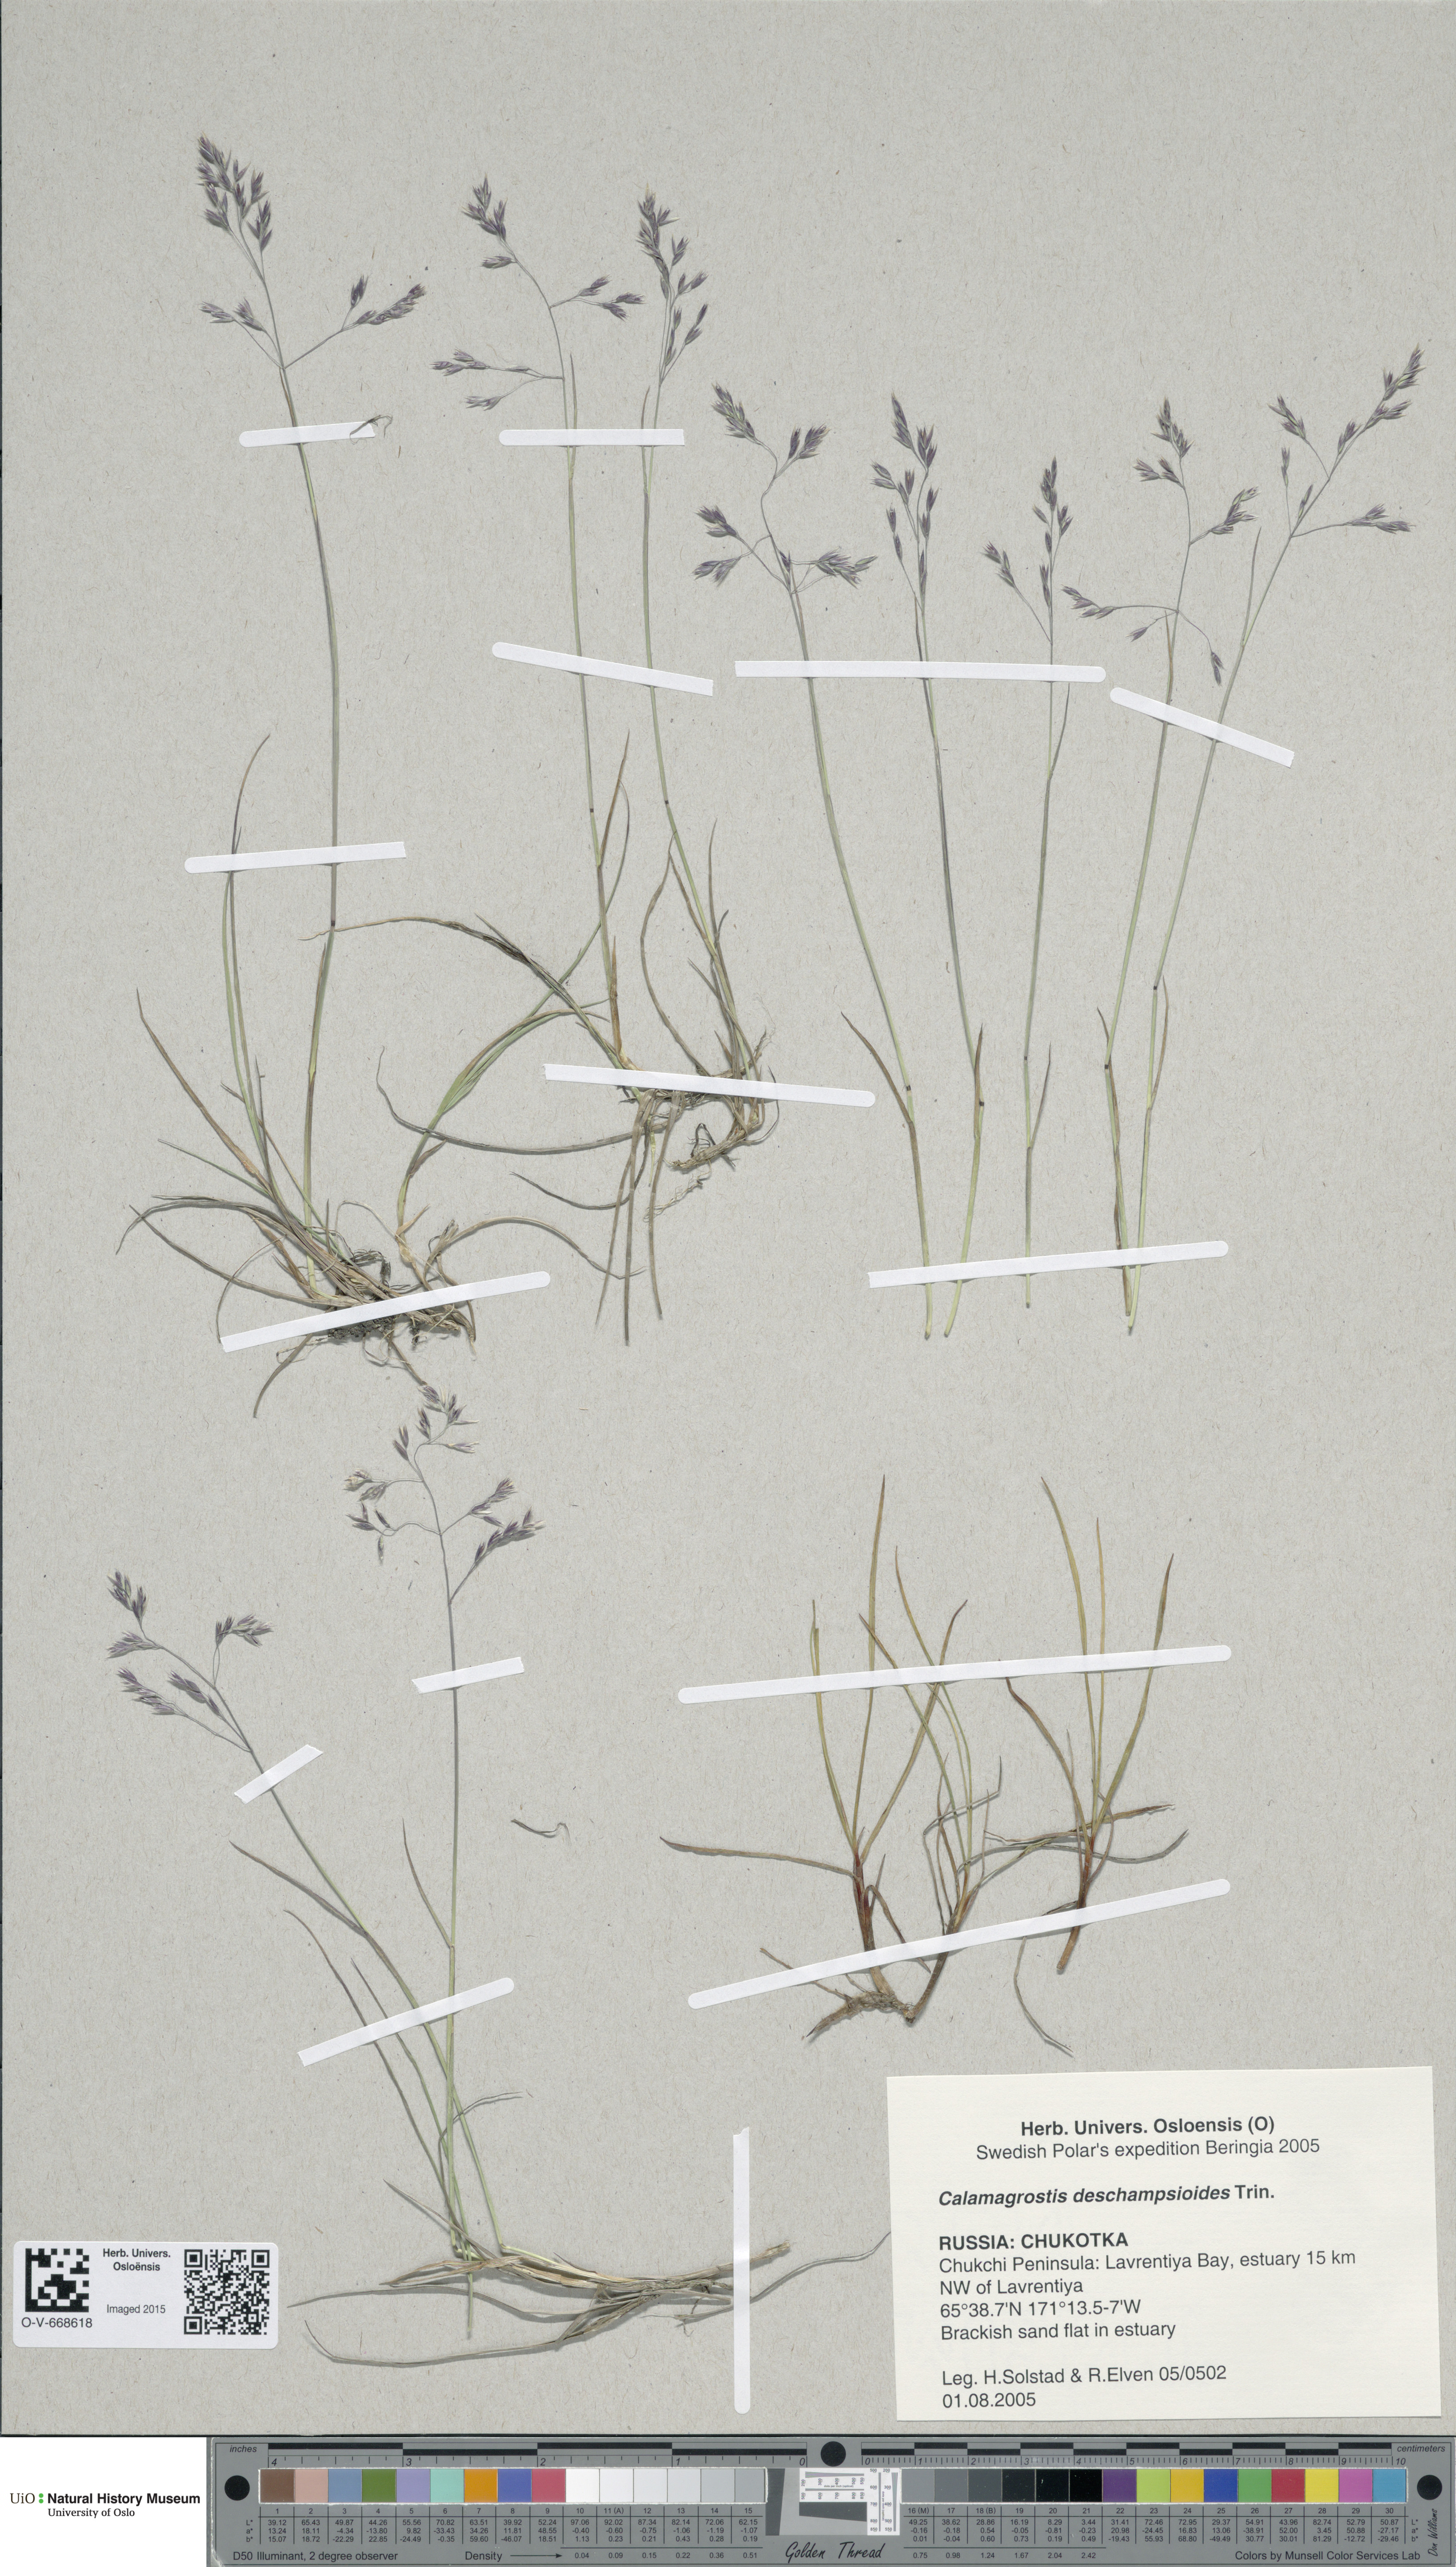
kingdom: Plantae
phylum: Tracheophyta
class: Liliopsida
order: Poales
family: Poaceae
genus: Calamagrostis
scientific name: Calamagrostis deschampsioides
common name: Circumpolar reedgrass
